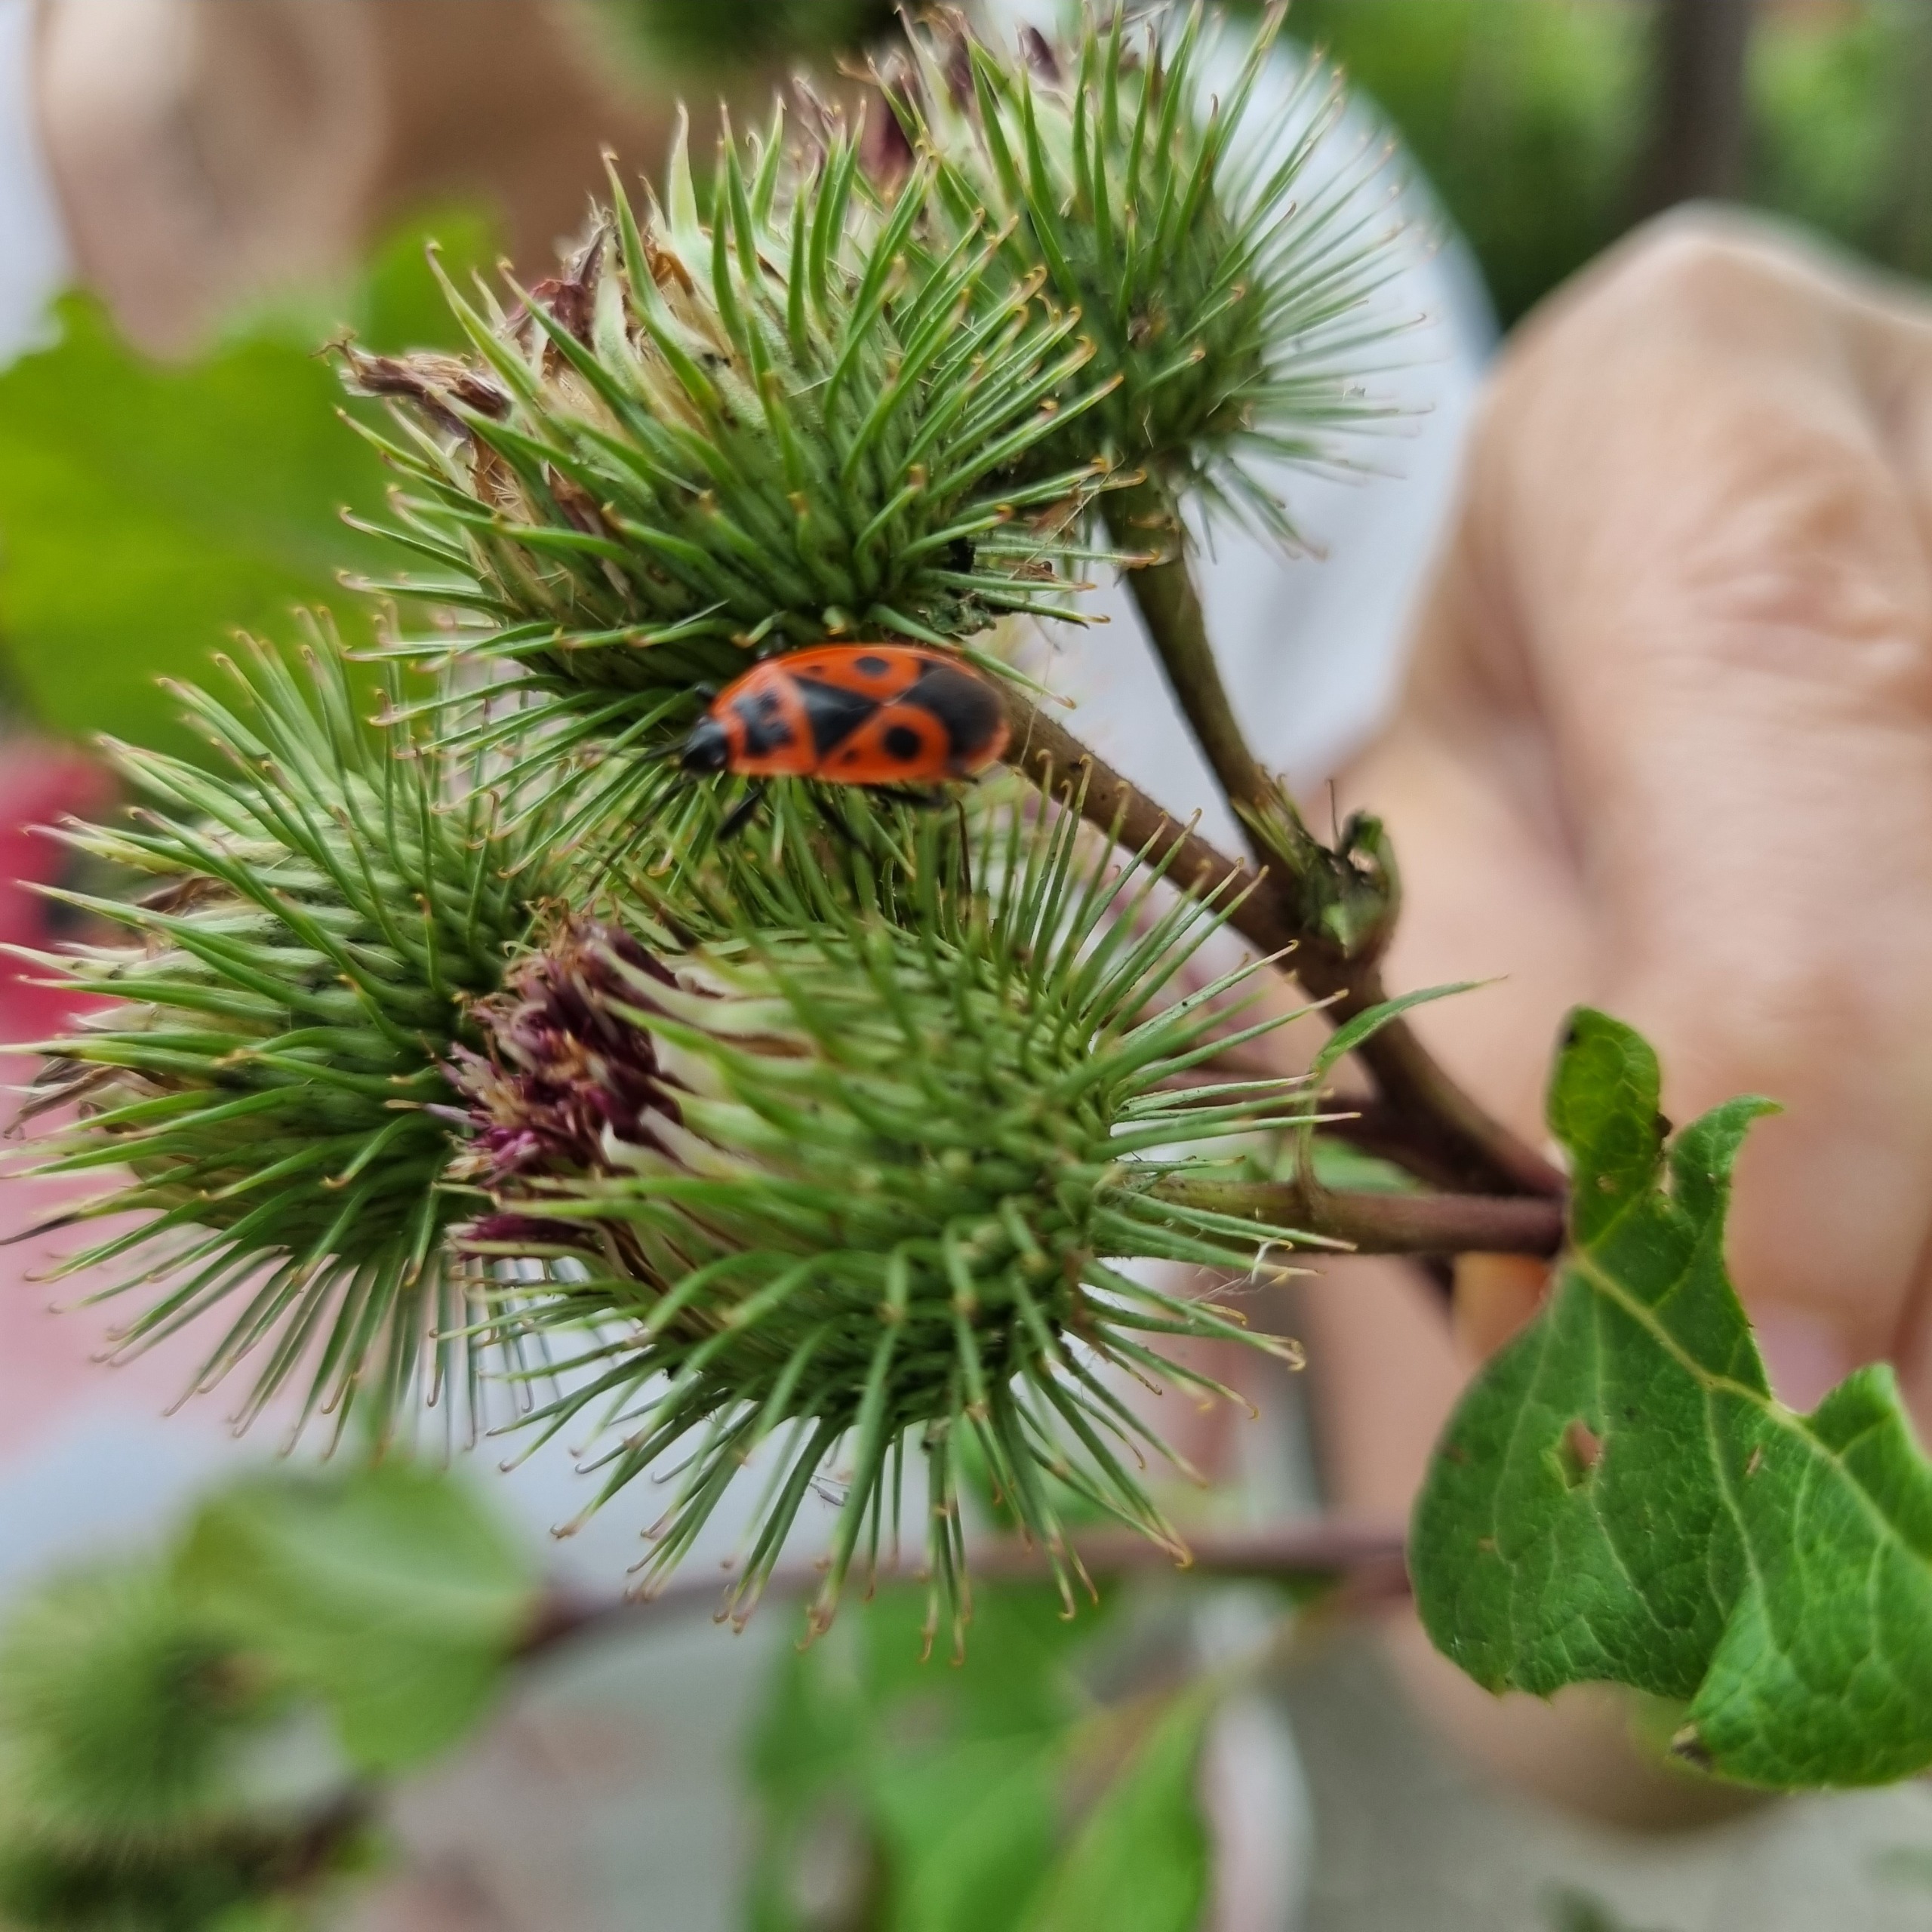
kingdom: Animalia
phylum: Arthropoda
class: Insecta
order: Hemiptera
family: Pyrrhocoridae
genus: Pyrrhocoris
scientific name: Pyrrhocoris apterus
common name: Ildtæge
